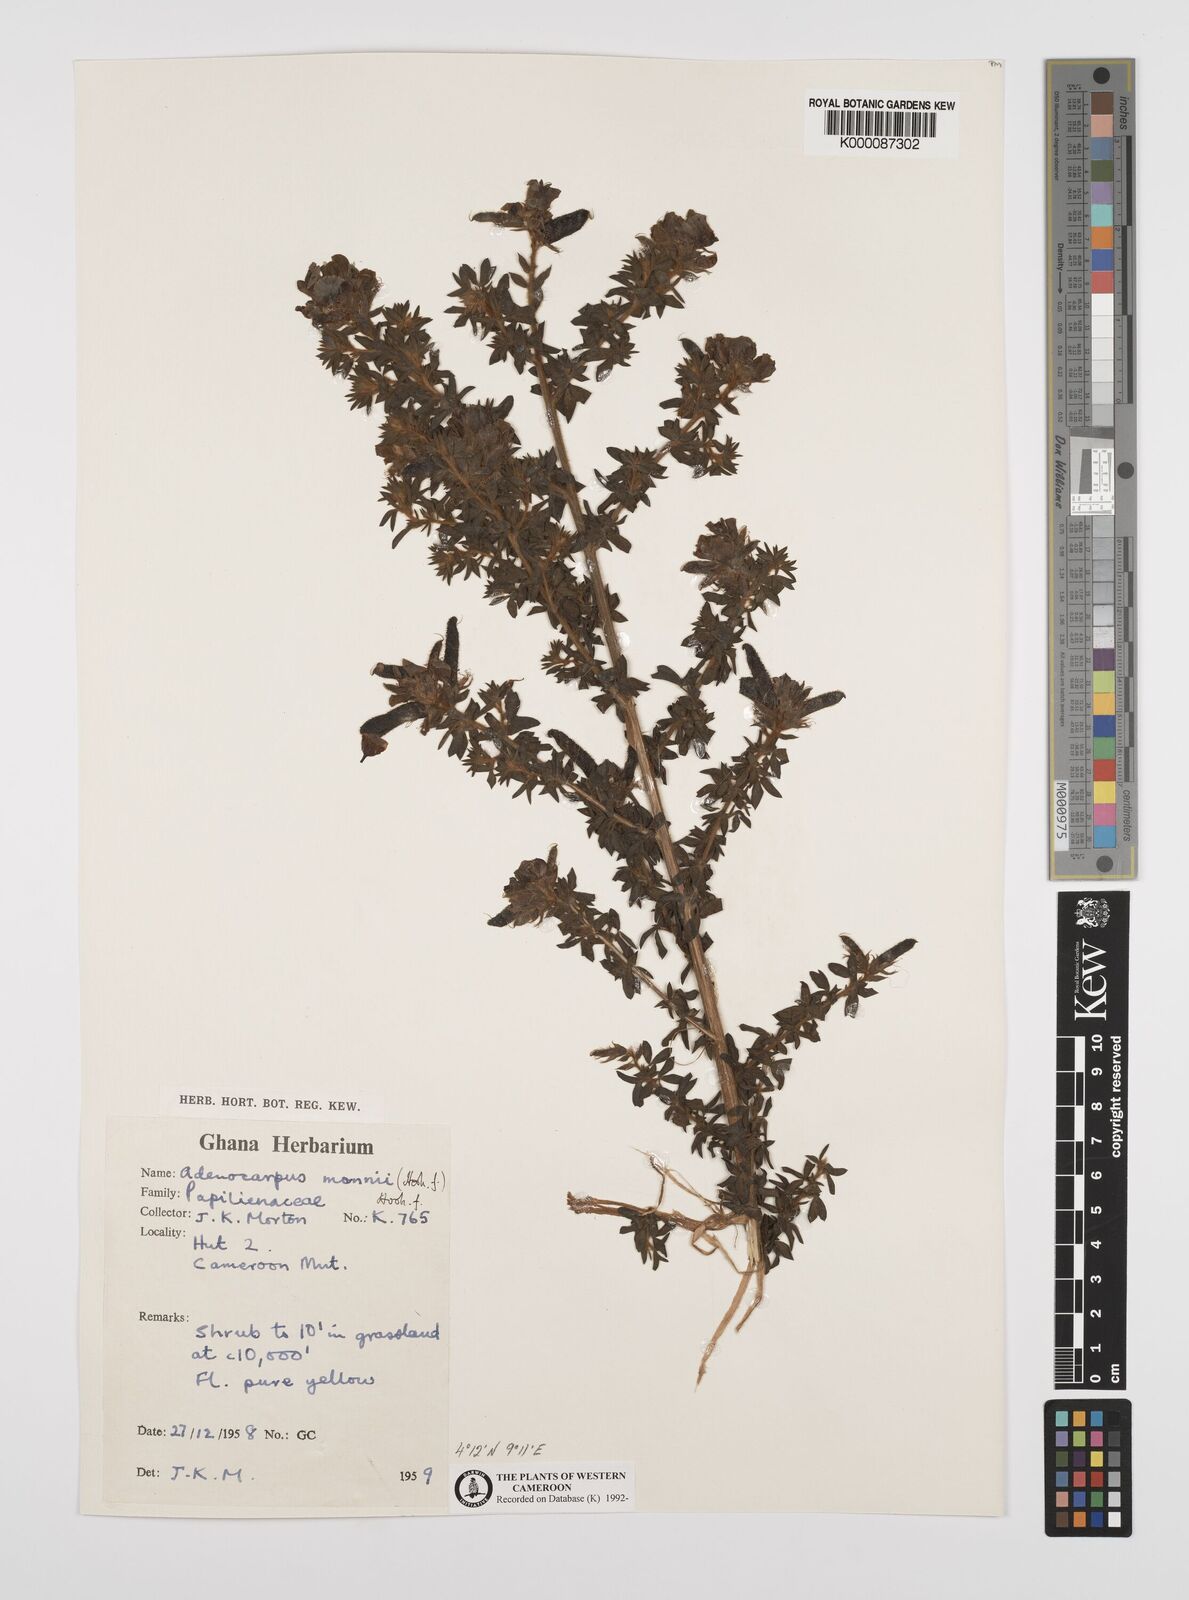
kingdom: Plantae
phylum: Tracheophyta
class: Magnoliopsida
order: Fabales
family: Fabaceae
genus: Adenocarpus
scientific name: Adenocarpus mannii
